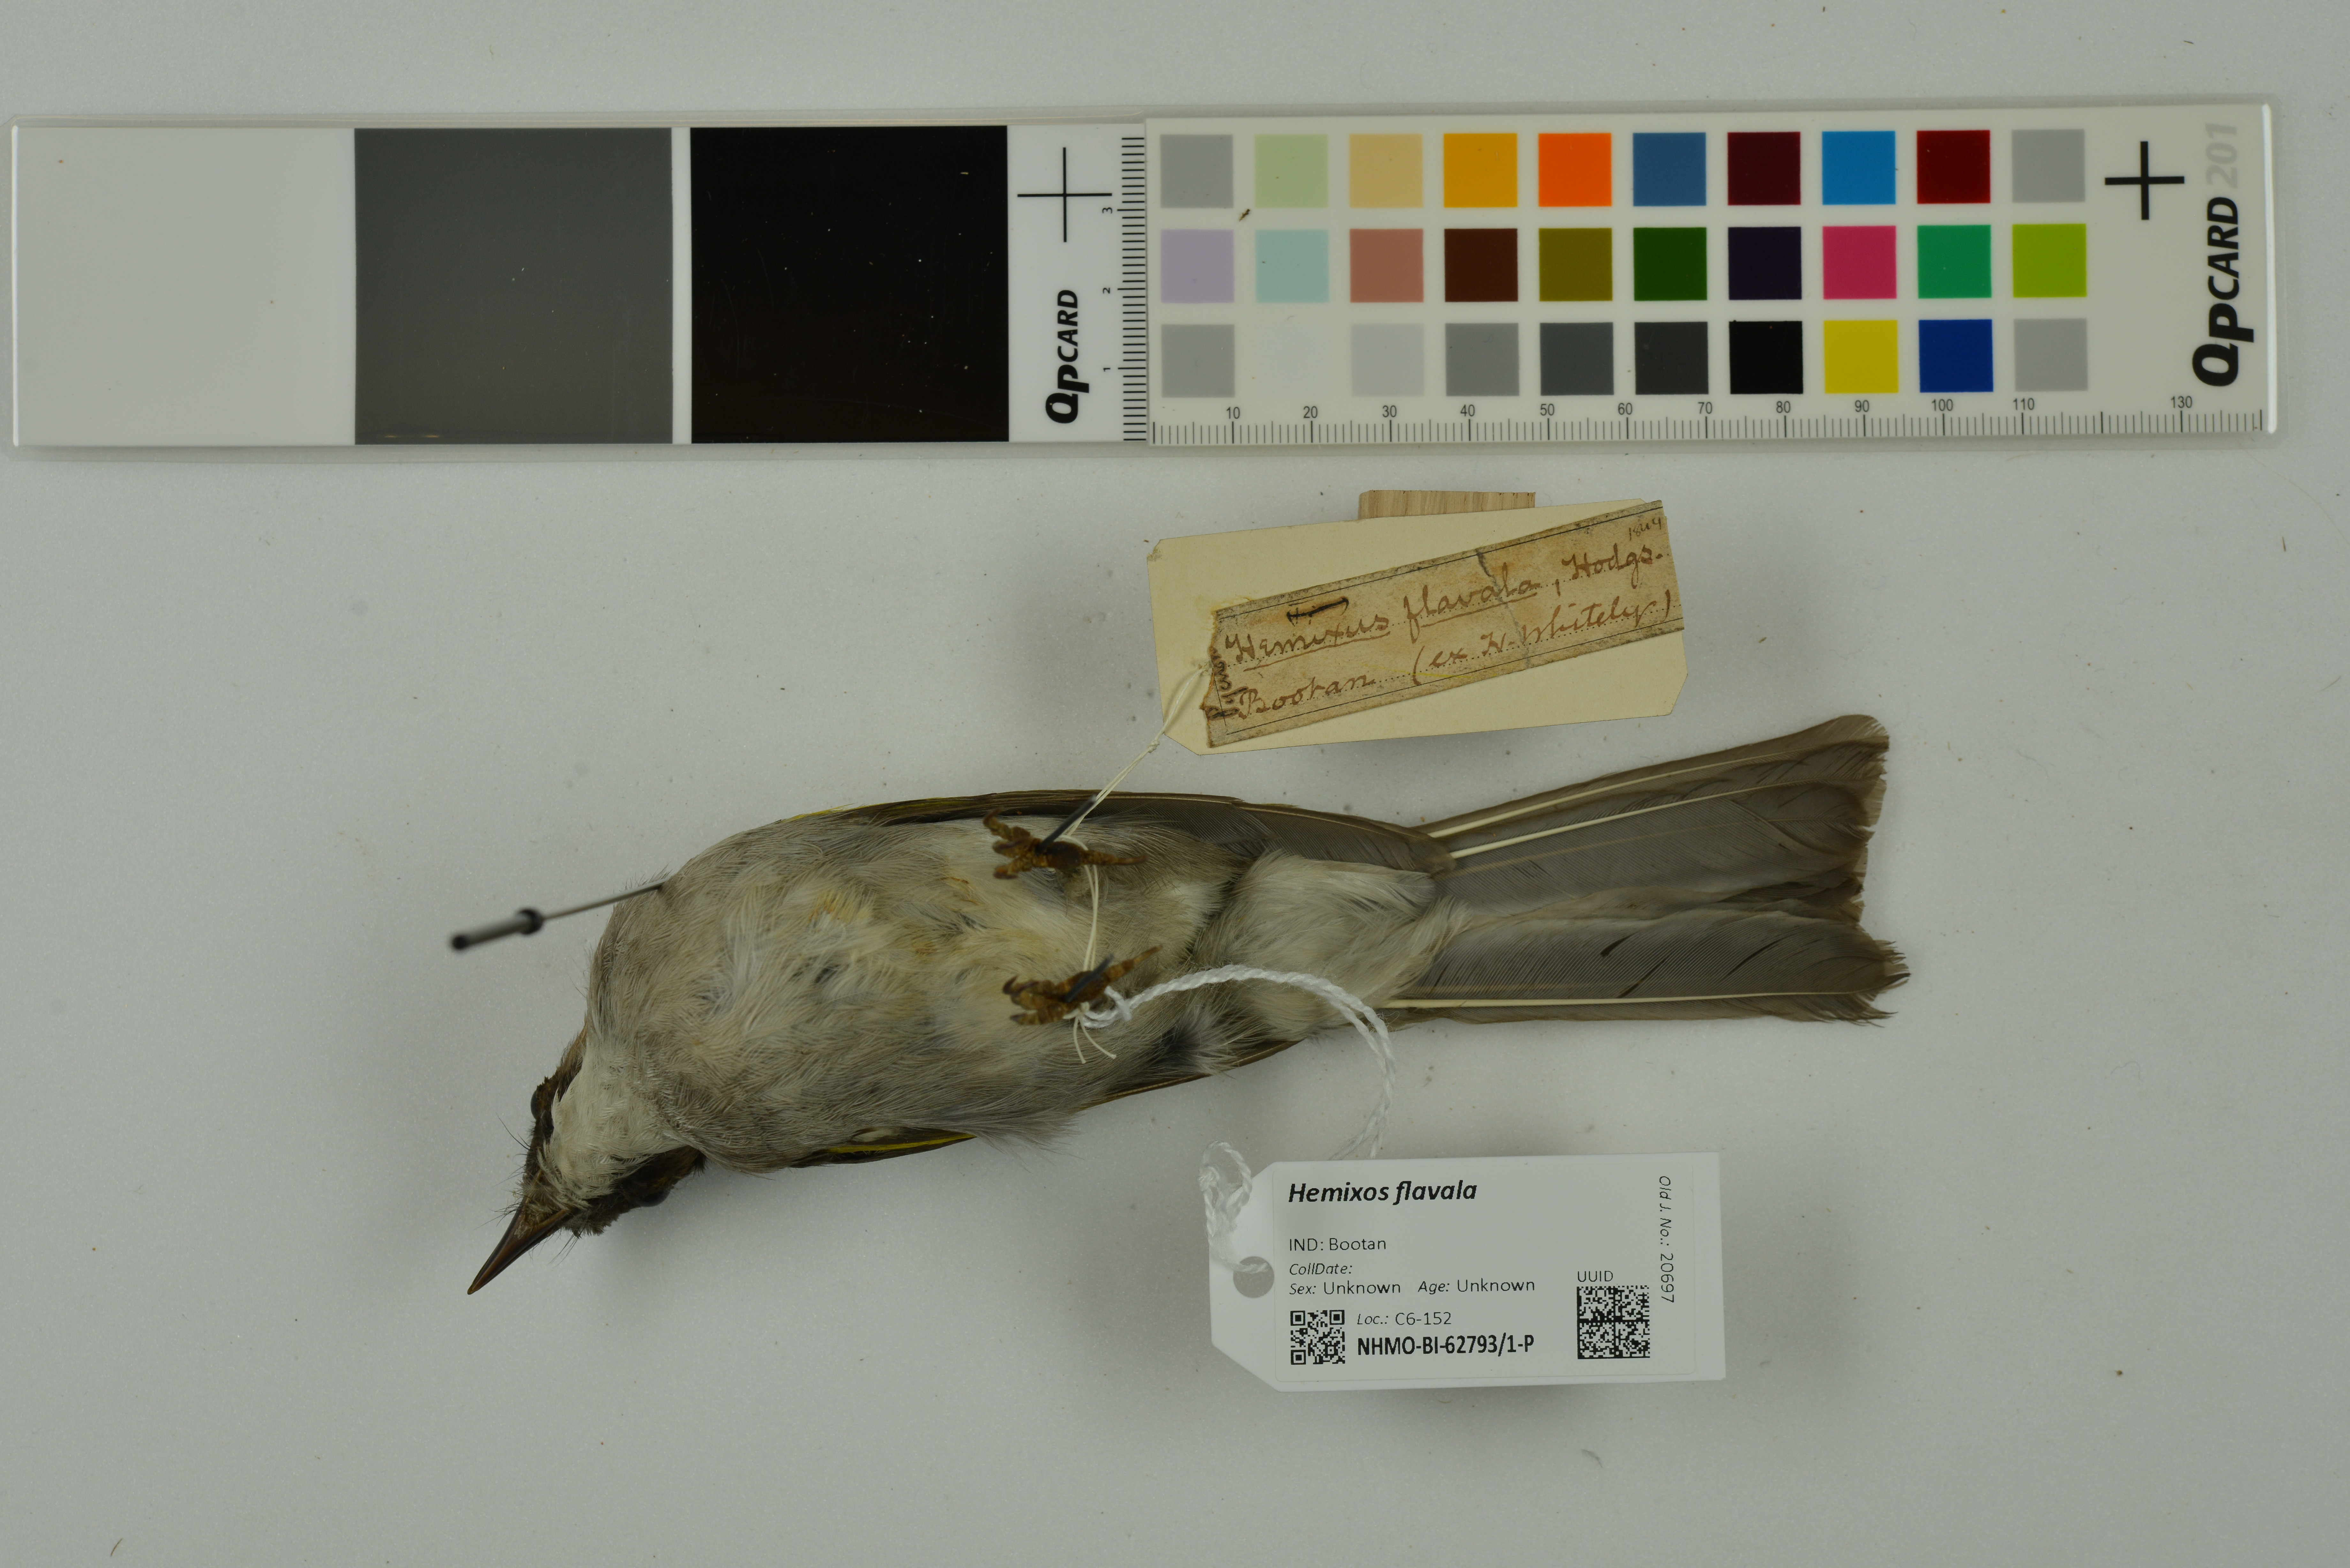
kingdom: Animalia
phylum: Chordata
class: Aves
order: Passeriformes
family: Pycnonotidae
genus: Hemixos
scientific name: Hemixos flavala
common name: Ashy bulbul
